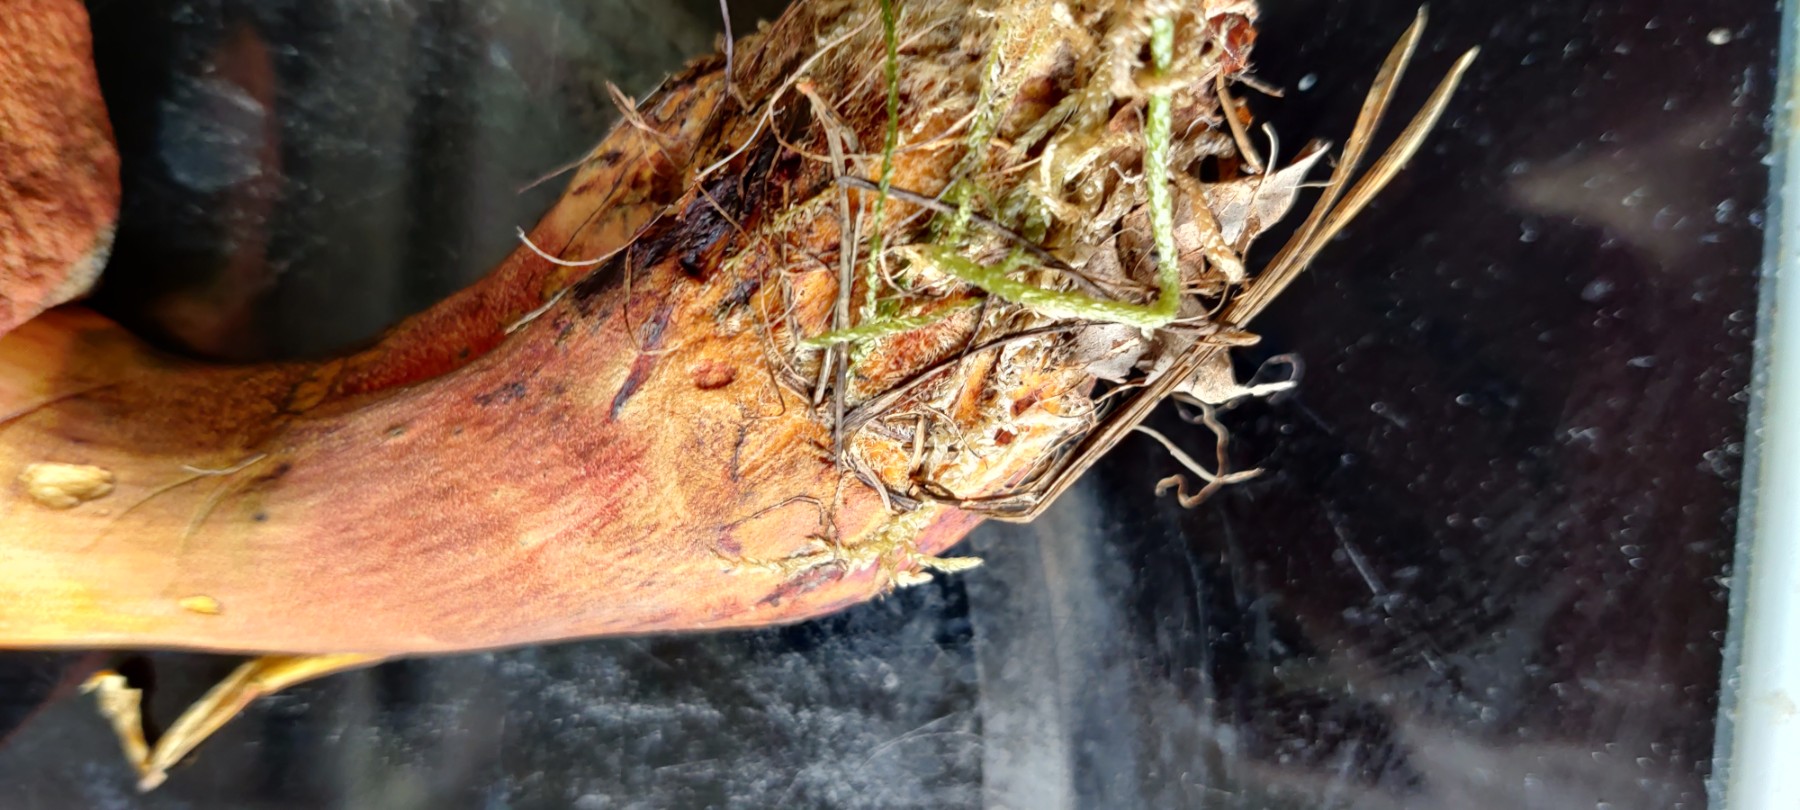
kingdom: Fungi
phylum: Basidiomycota
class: Agaricomycetes
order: Boletales
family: Boletaceae
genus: Neoboletus
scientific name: Neoboletus
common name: indigorørhat
